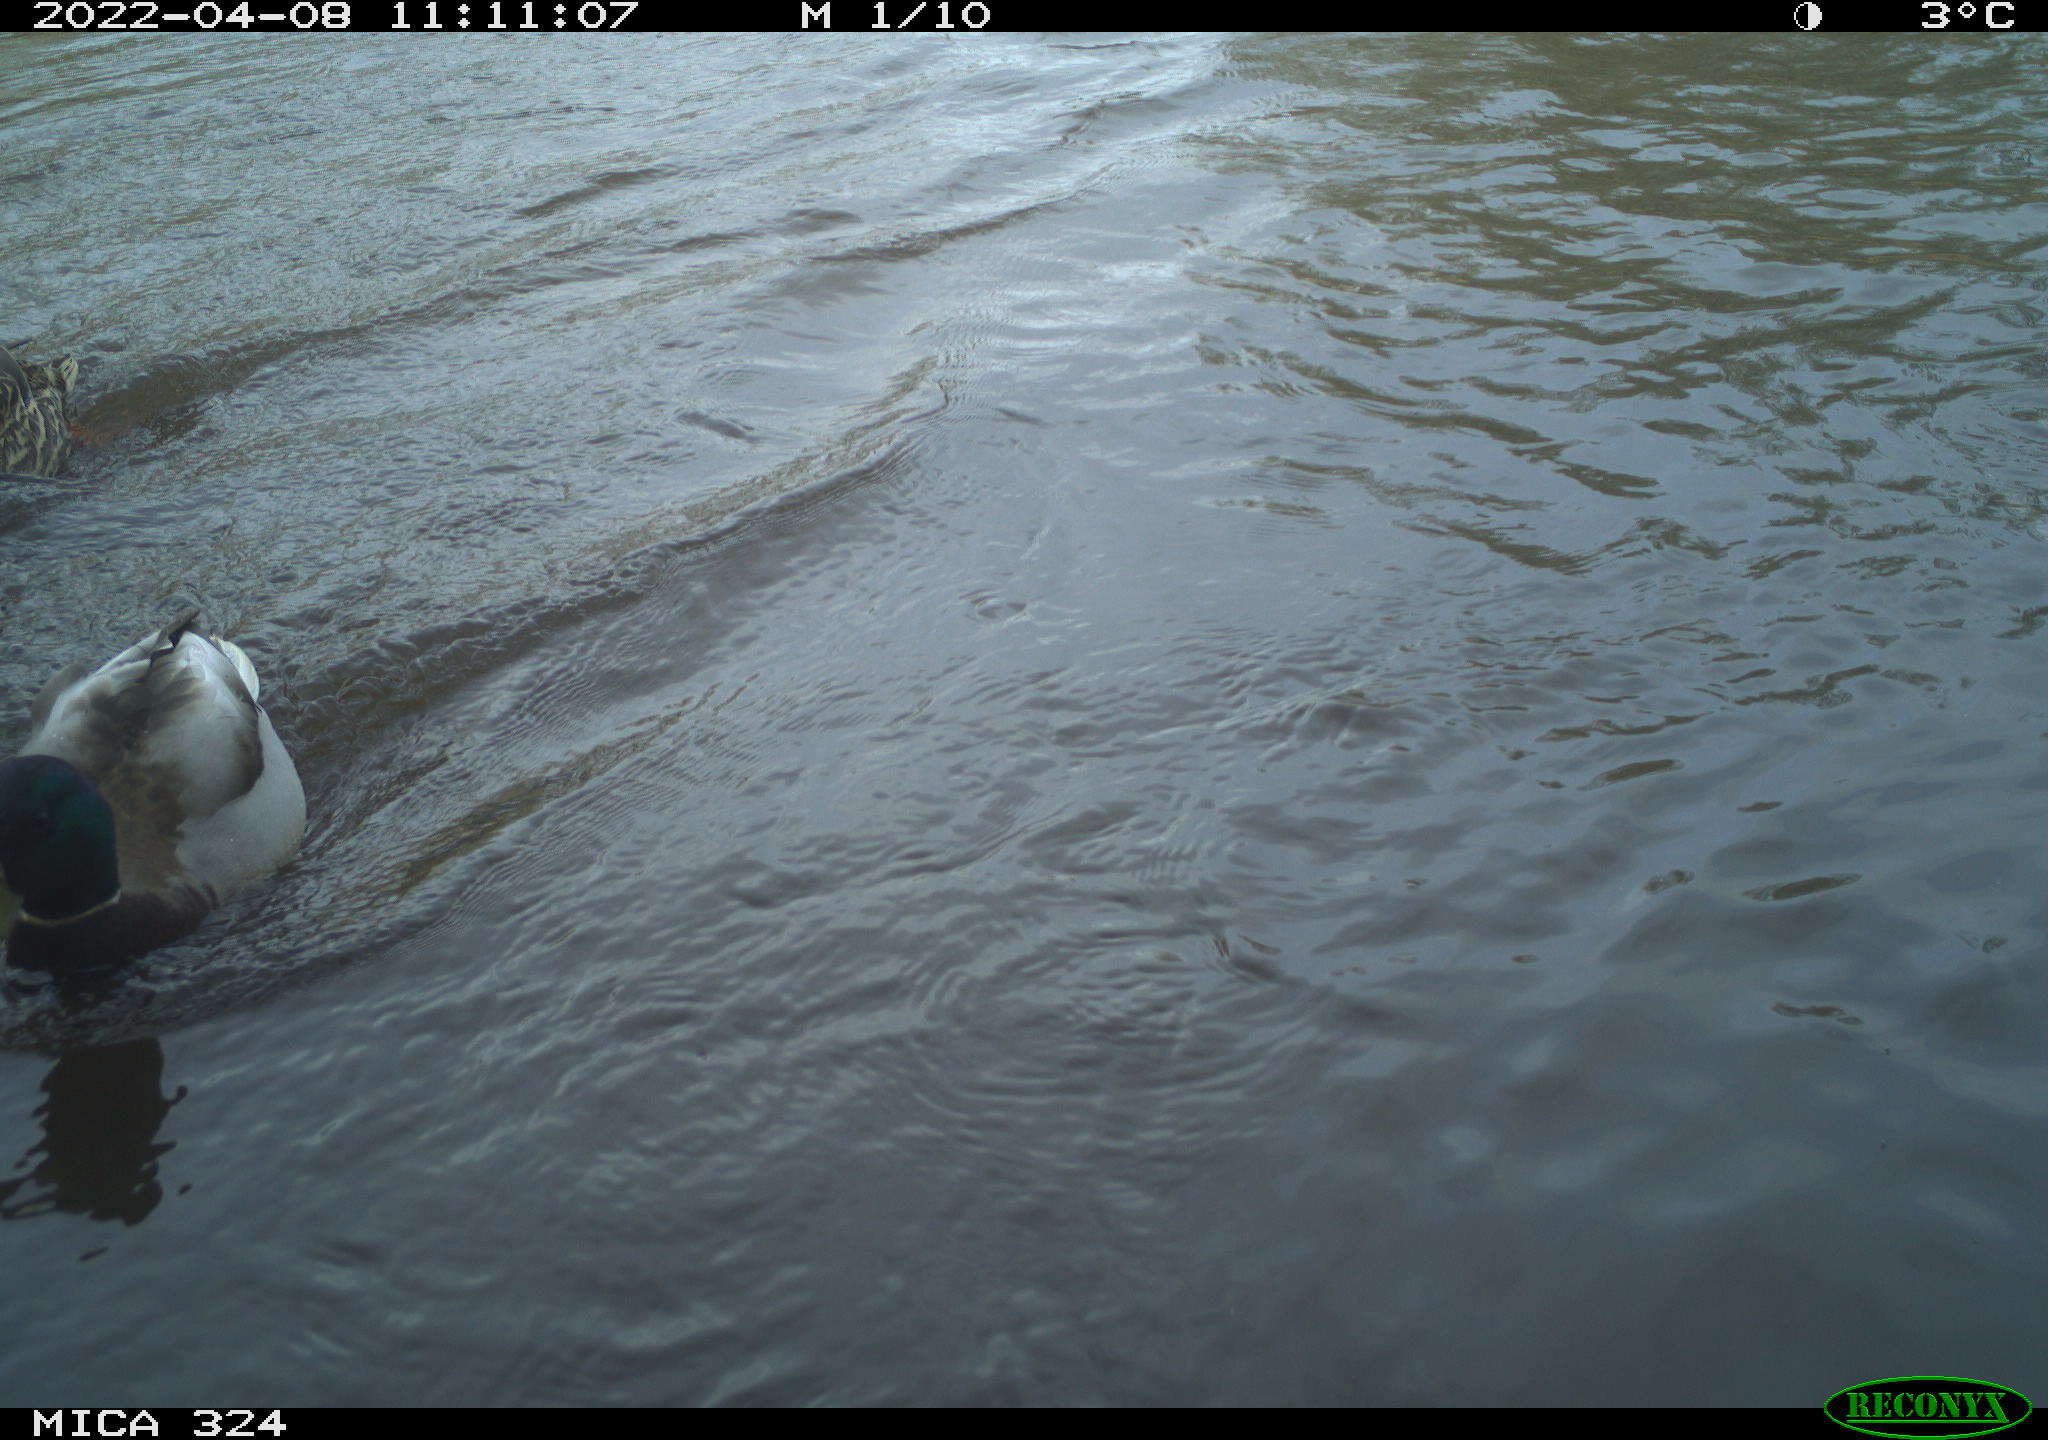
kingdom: Animalia
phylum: Chordata
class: Aves
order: Anseriformes
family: Anatidae
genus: Anas
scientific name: Anas platyrhynchos
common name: Mallard
